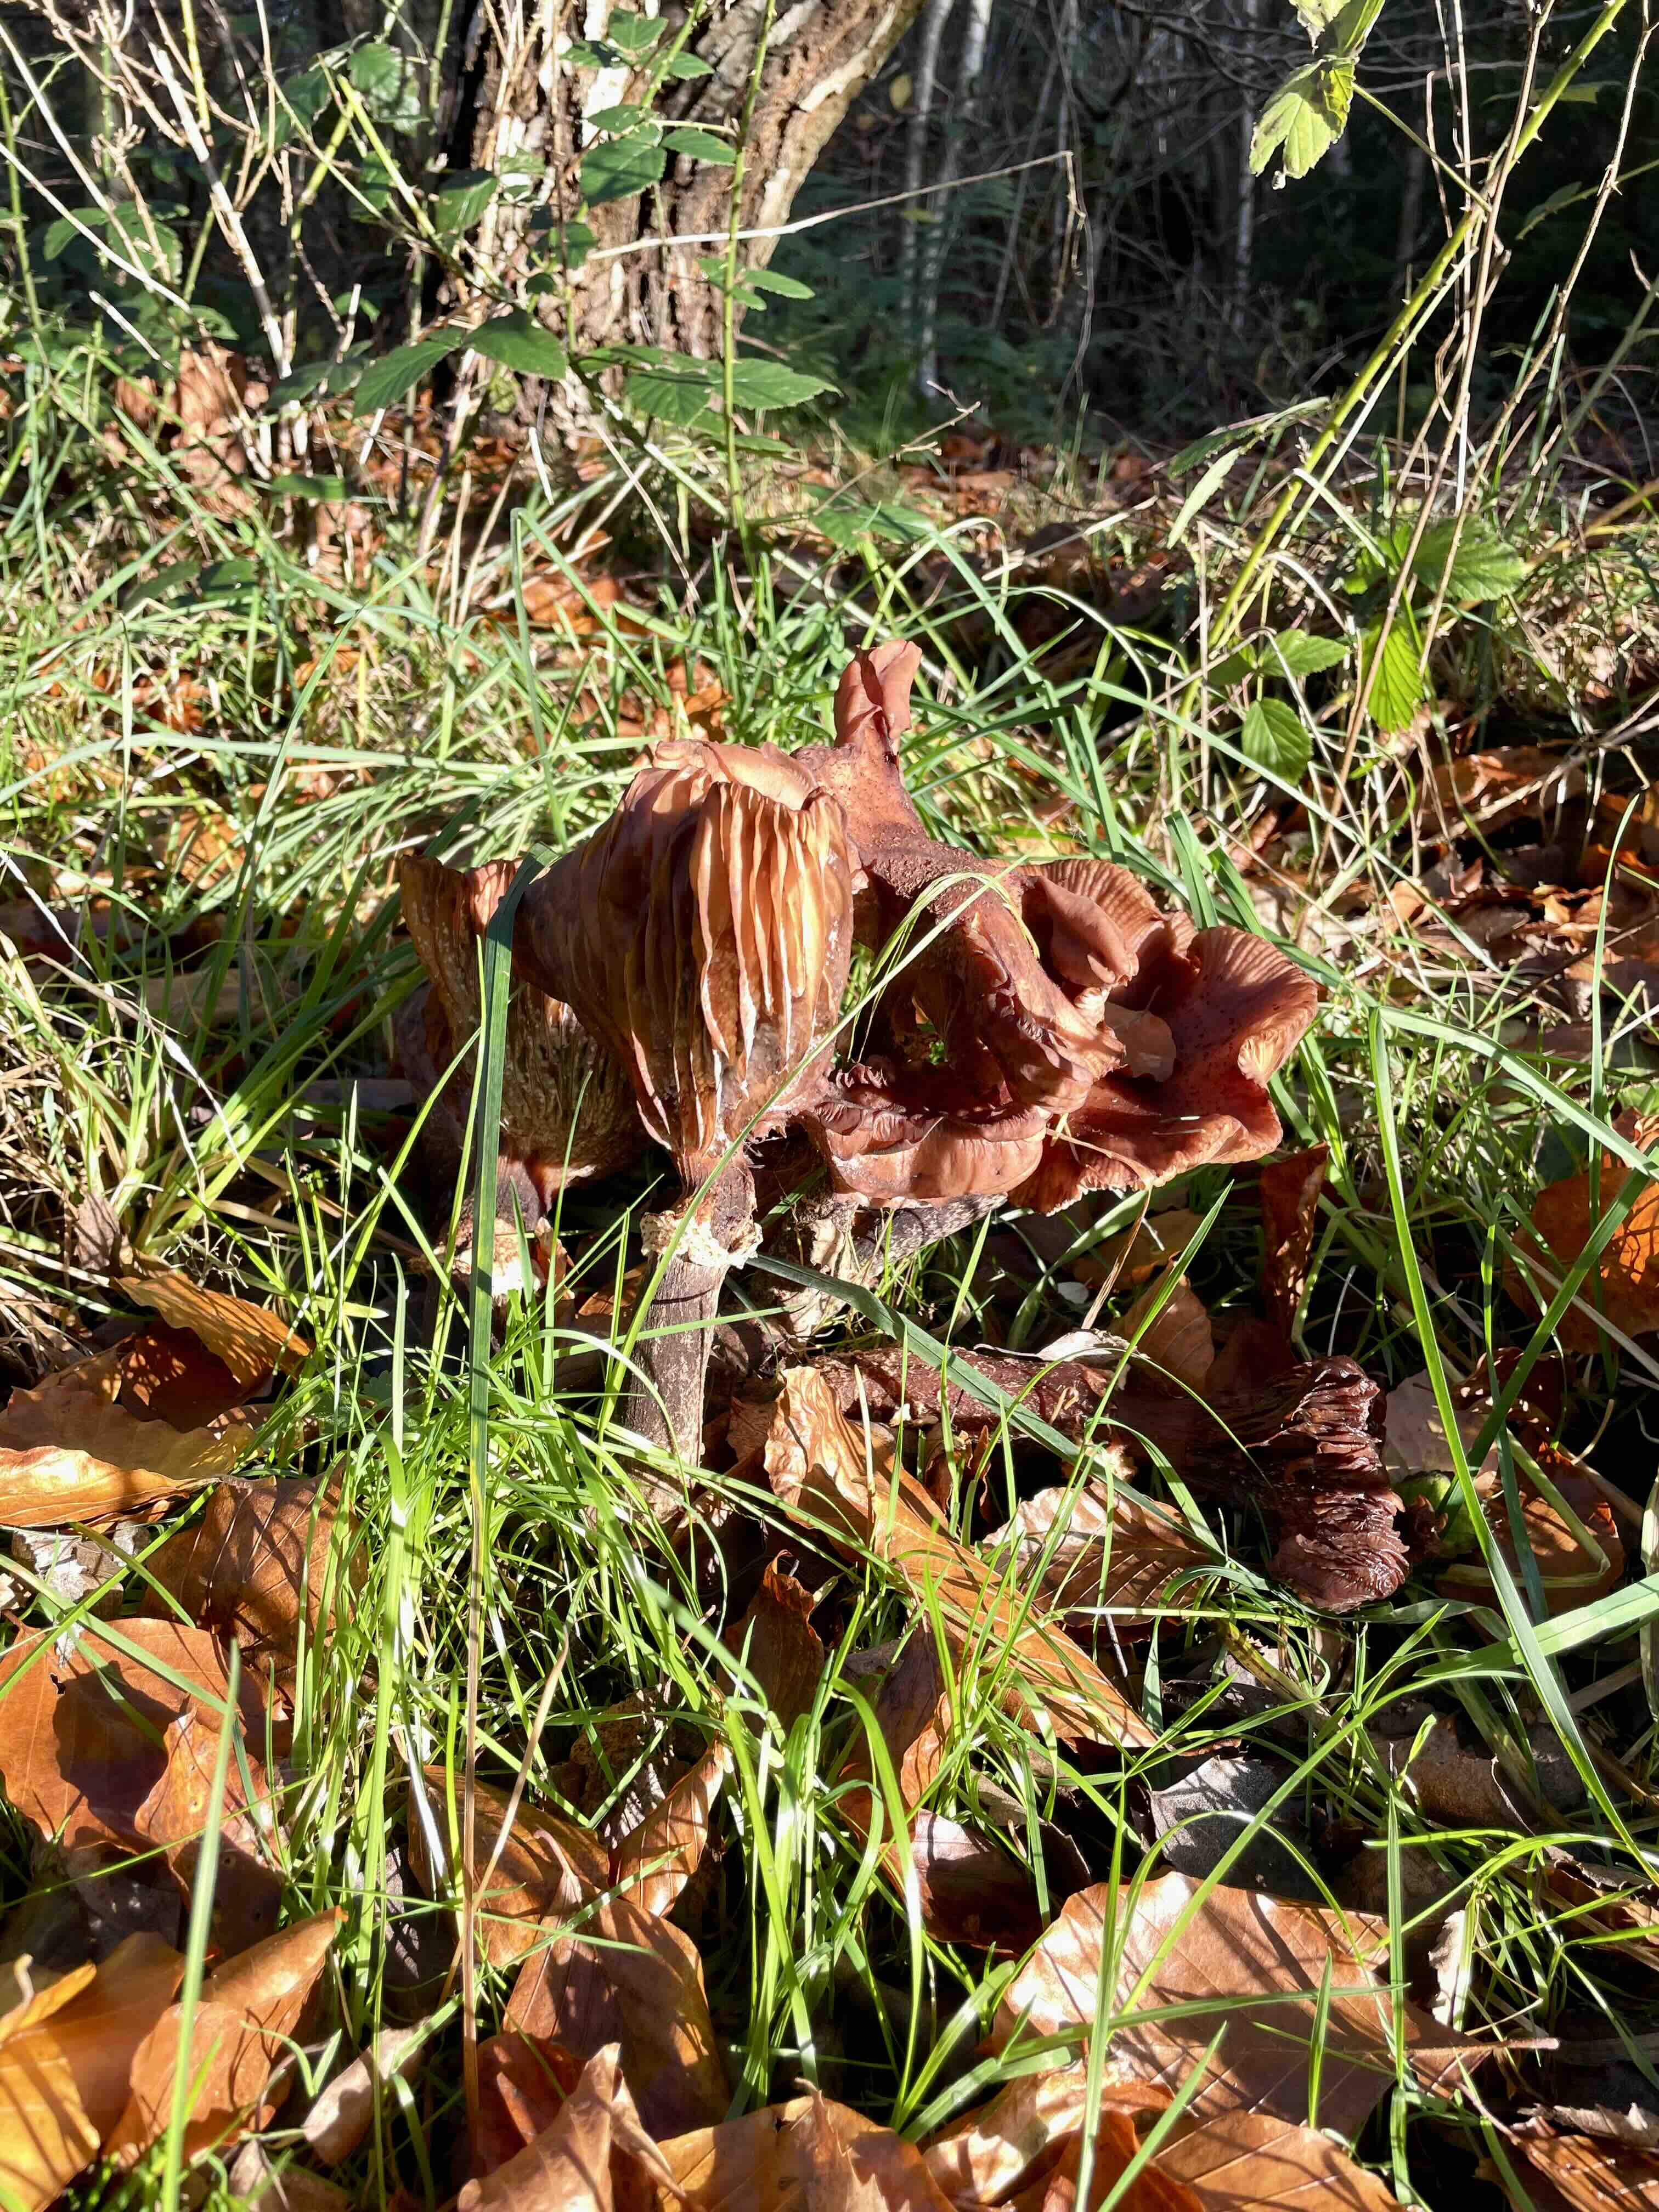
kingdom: Fungi
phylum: Basidiomycota
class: Agaricomycetes
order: Agaricales
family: Physalacriaceae
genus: Armillaria
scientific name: Armillaria
